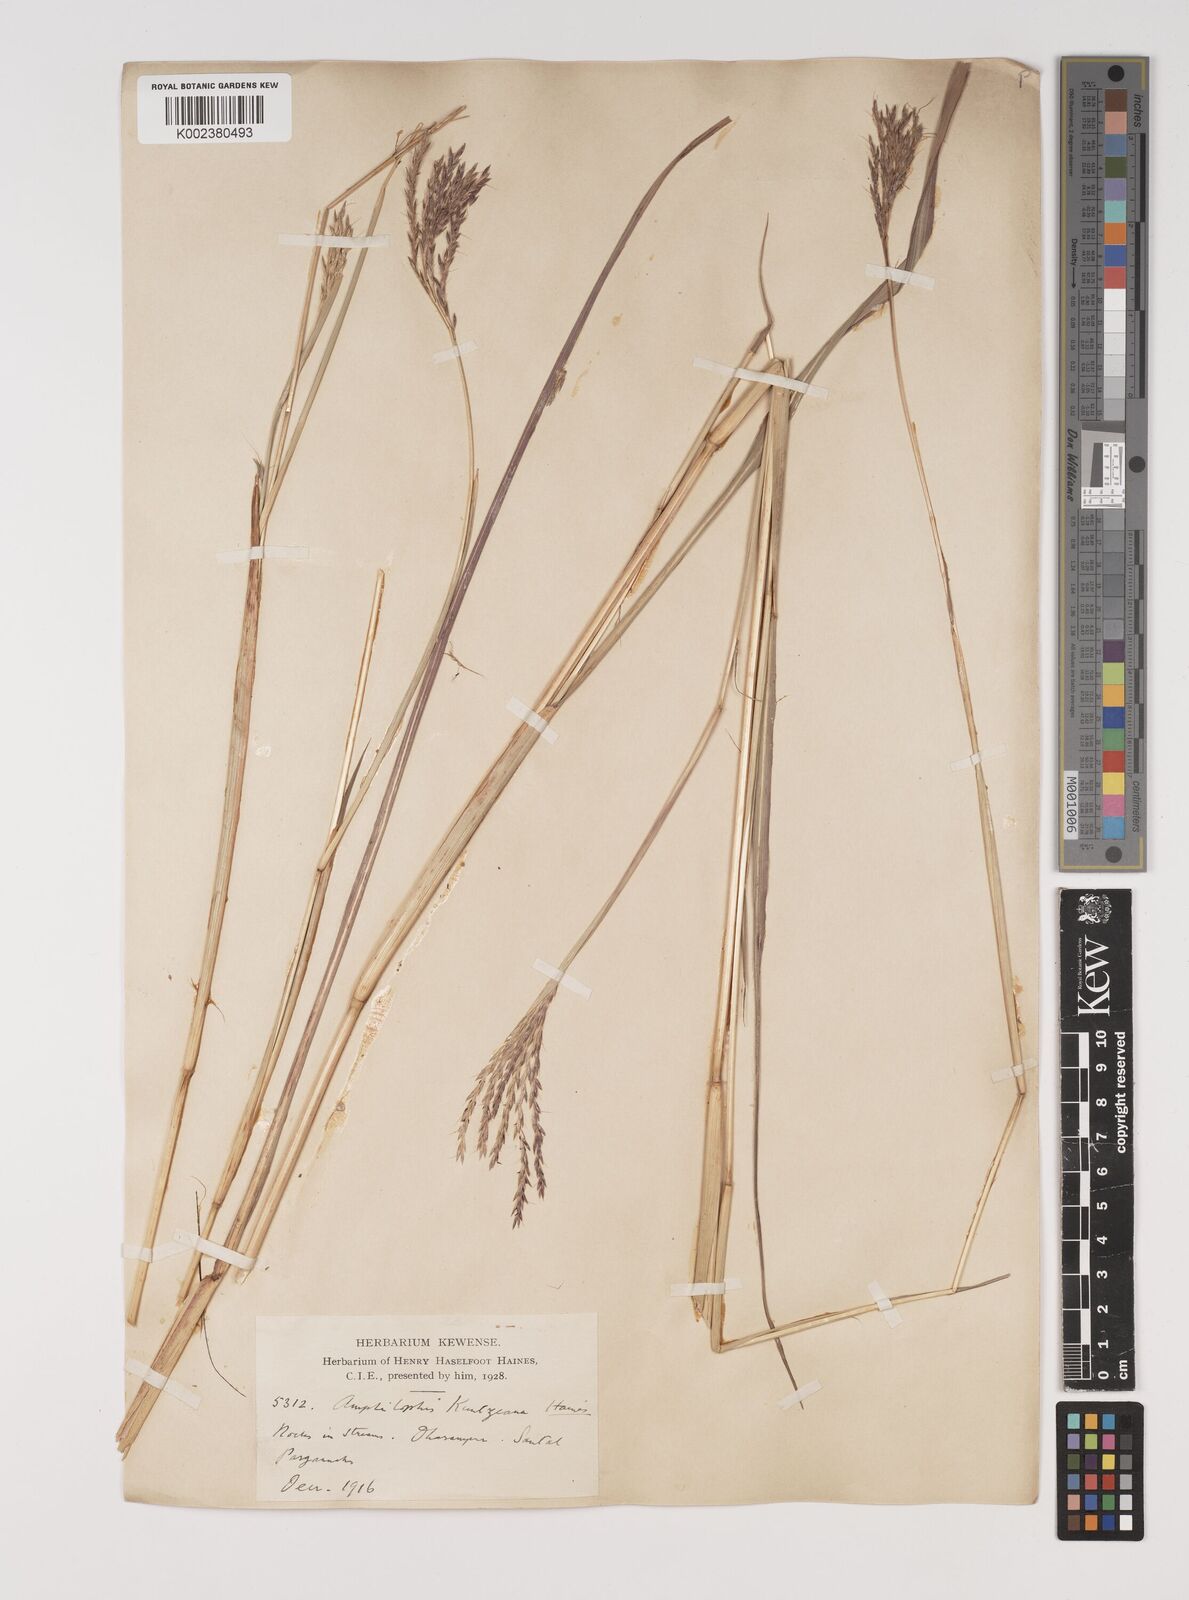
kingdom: Plantae
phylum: Tracheophyta
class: Liliopsida
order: Poales
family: Poaceae
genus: Bothriochloa
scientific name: Bothriochloa kuntzeana
